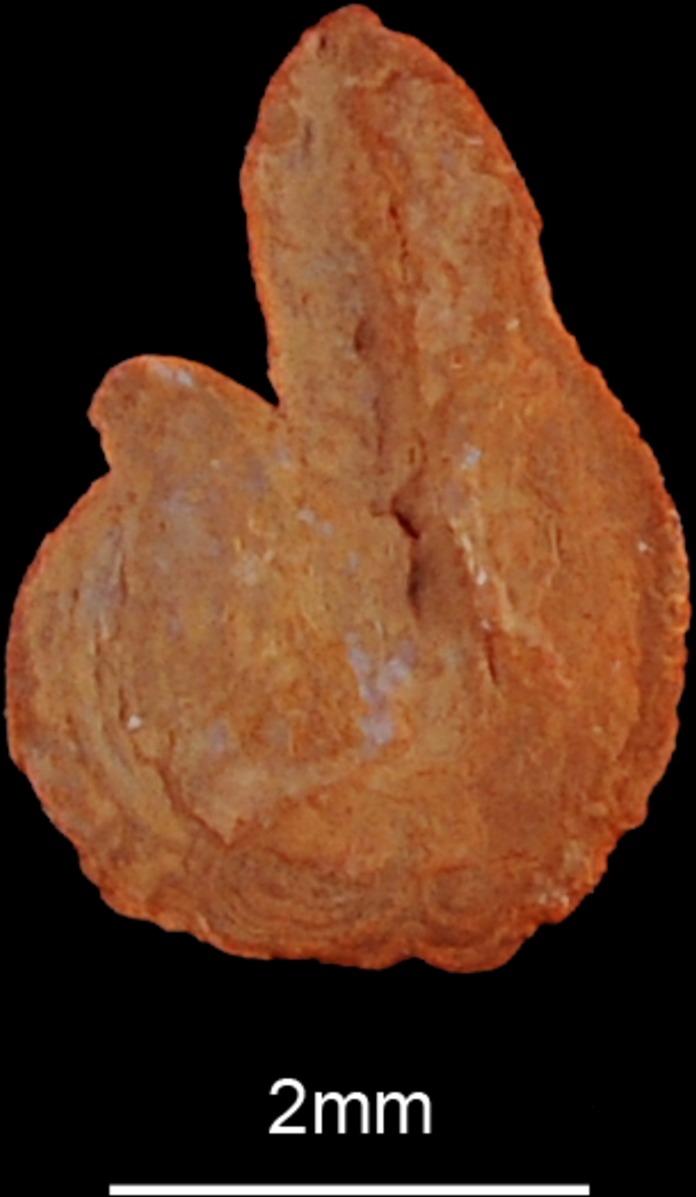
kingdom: Animalia
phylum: Chordata
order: Aulopiformes
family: Synodontidae
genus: Saurida
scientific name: Saurida longimanus
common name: Longfin lizardfish
